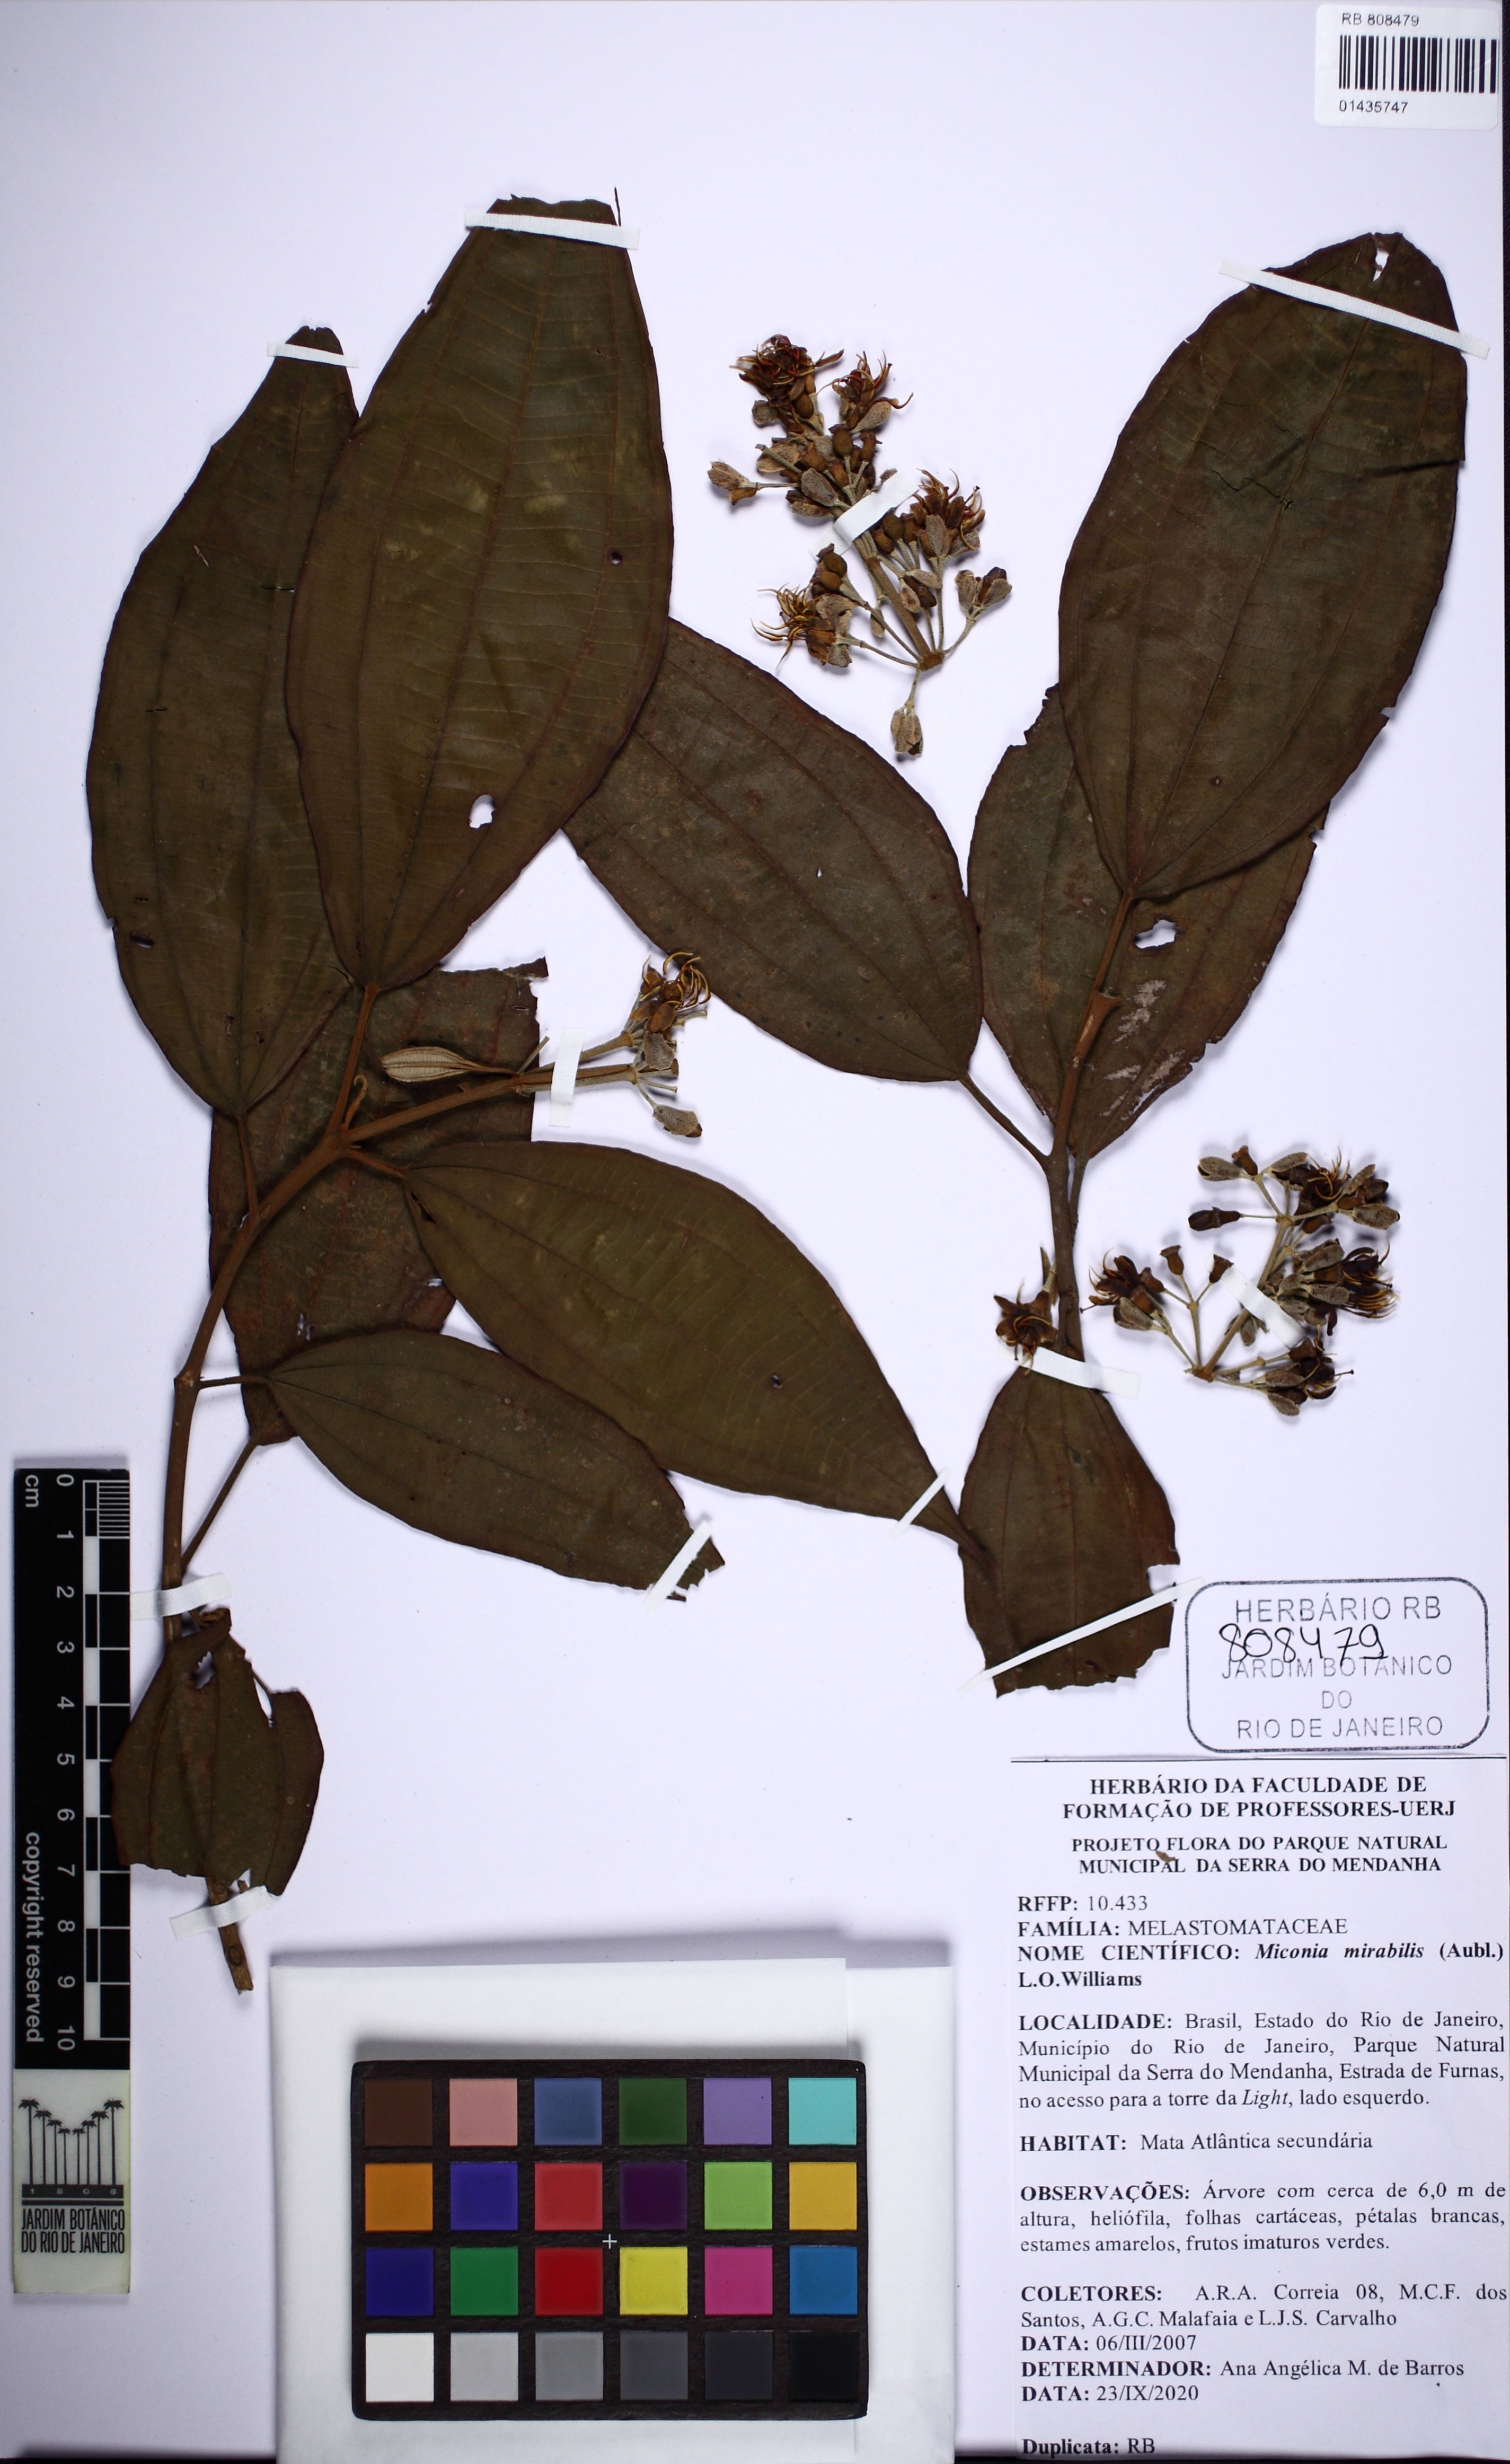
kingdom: Plantae
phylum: Tracheophyta
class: Magnoliopsida
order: Myrtales
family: Melastomataceae
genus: Miconia
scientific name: Miconia mirabilis
